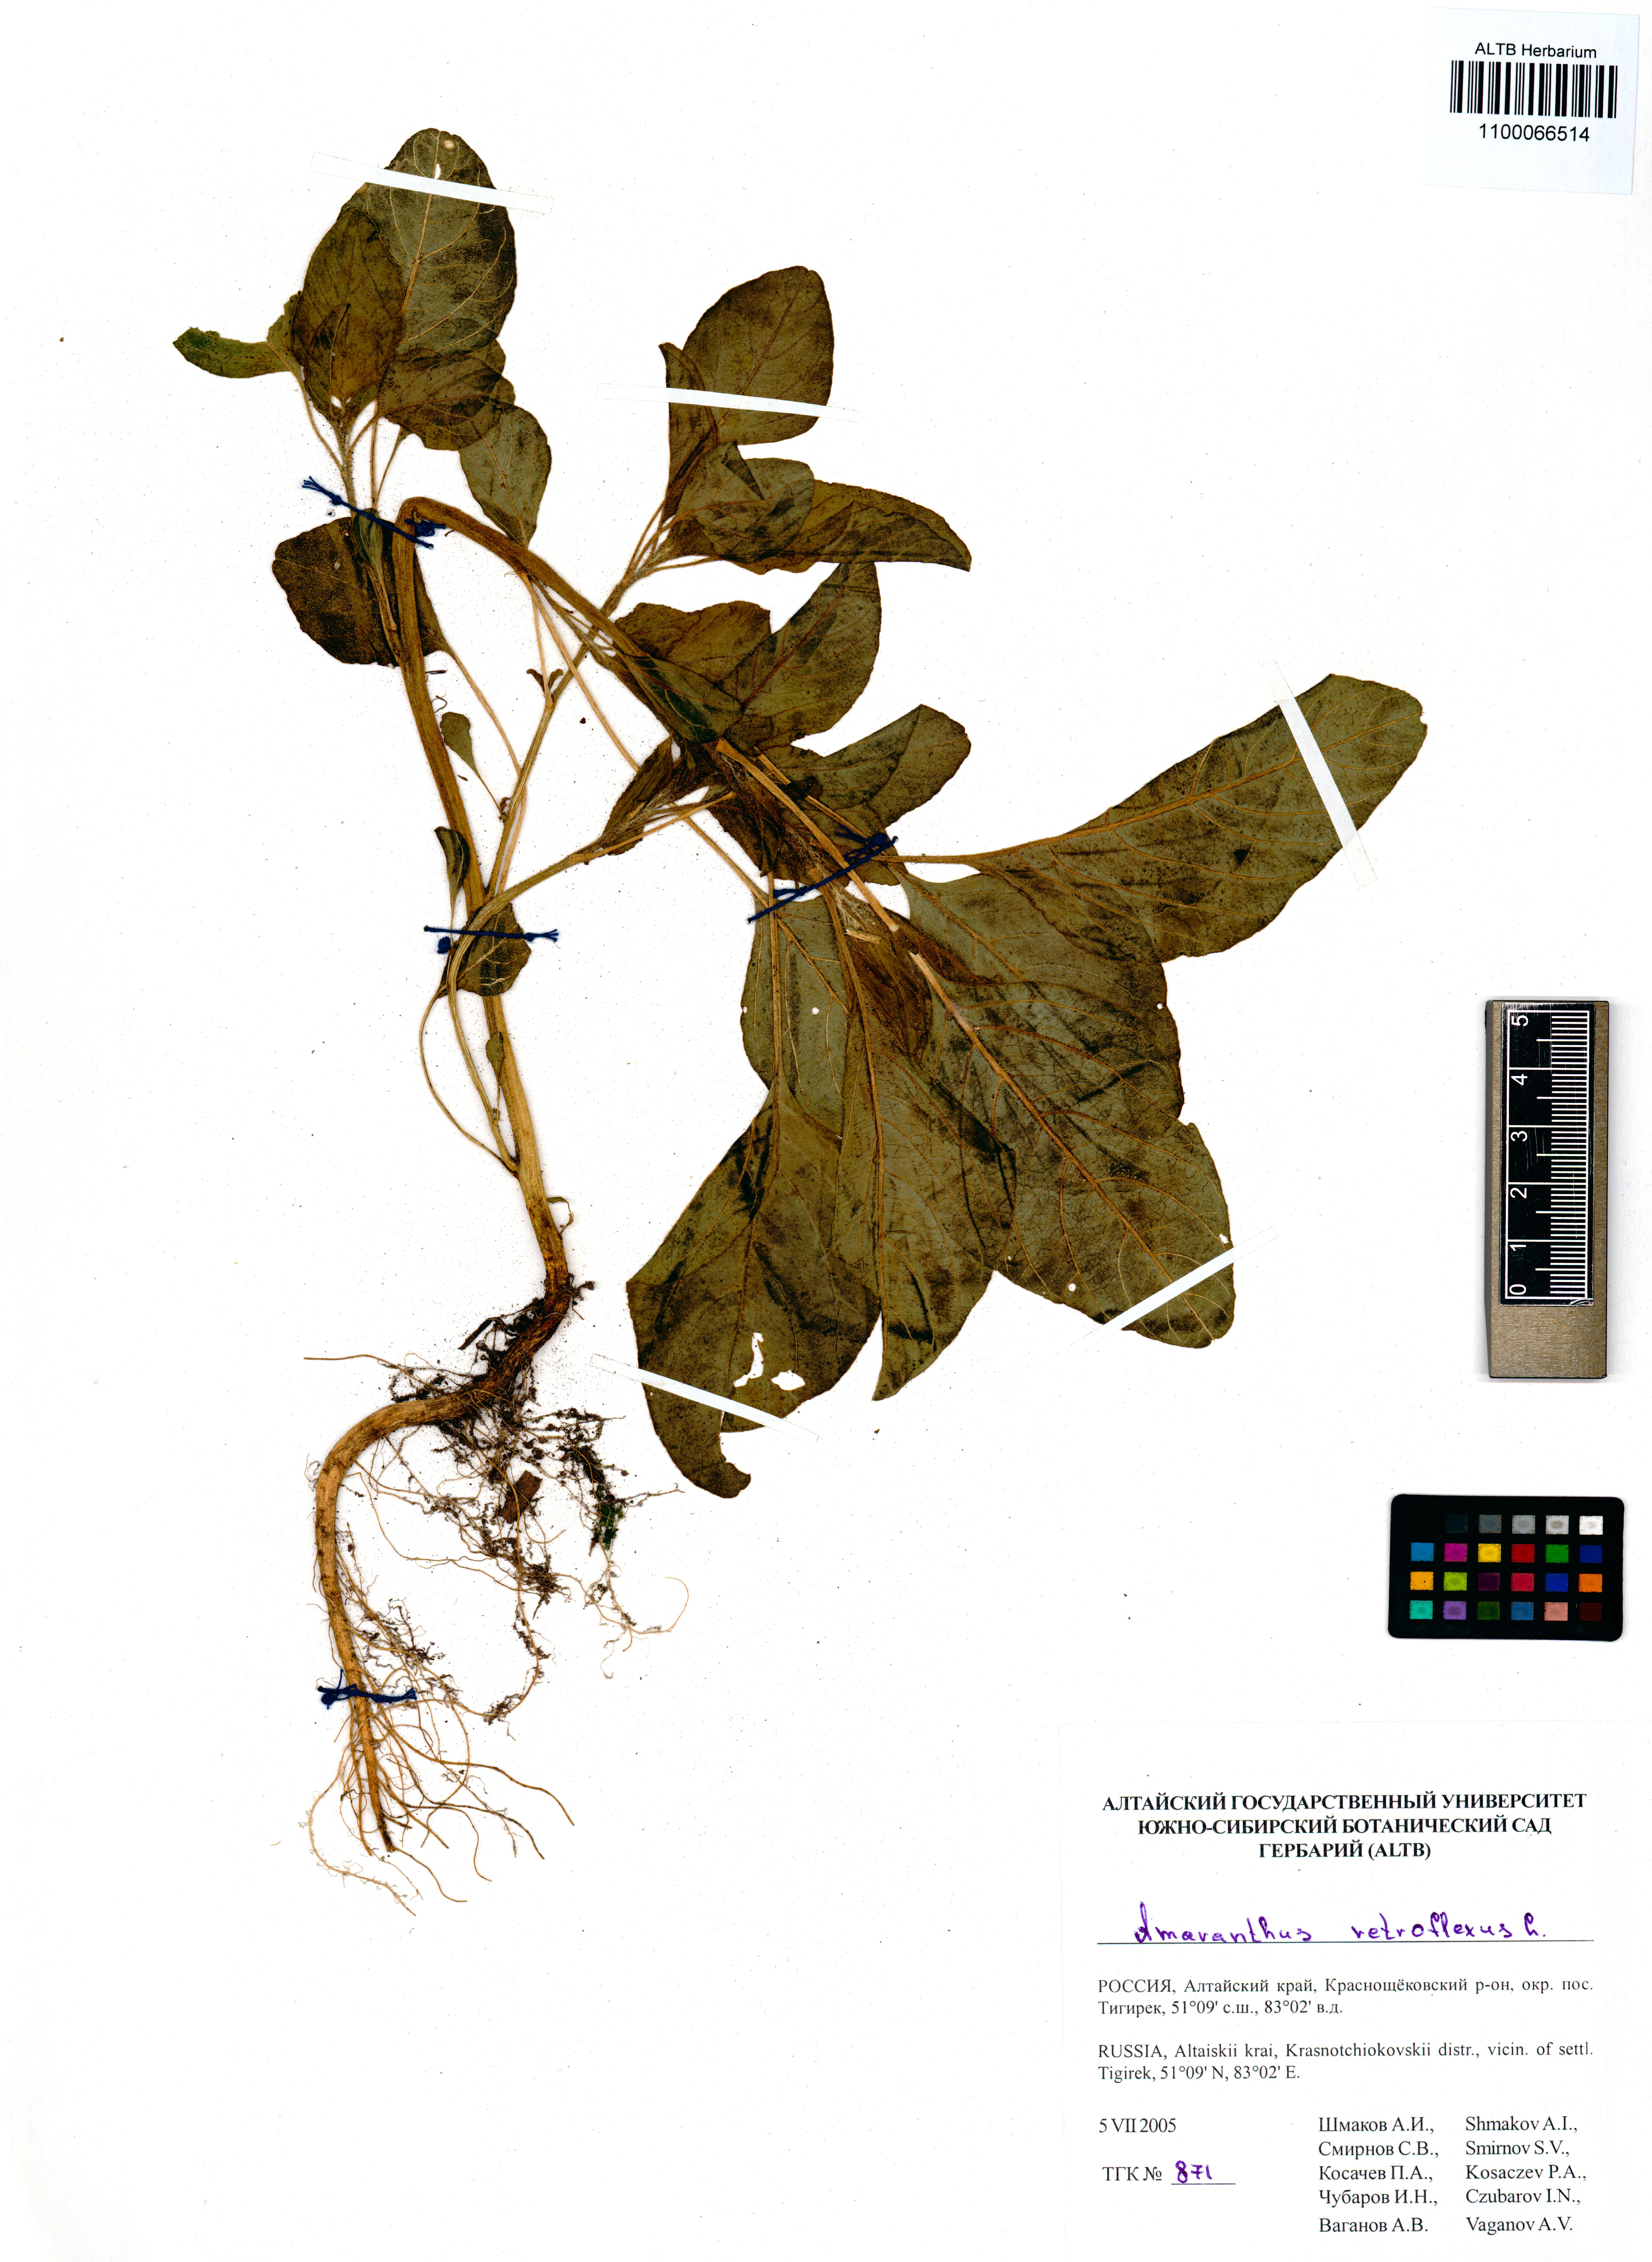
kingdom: Plantae
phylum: Tracheophyta
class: Magnoliopsida
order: Caryophyllales
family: Amaranthaceae
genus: Amaranthus
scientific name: Amaranthus retroflexus
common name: Redroot amaranth
